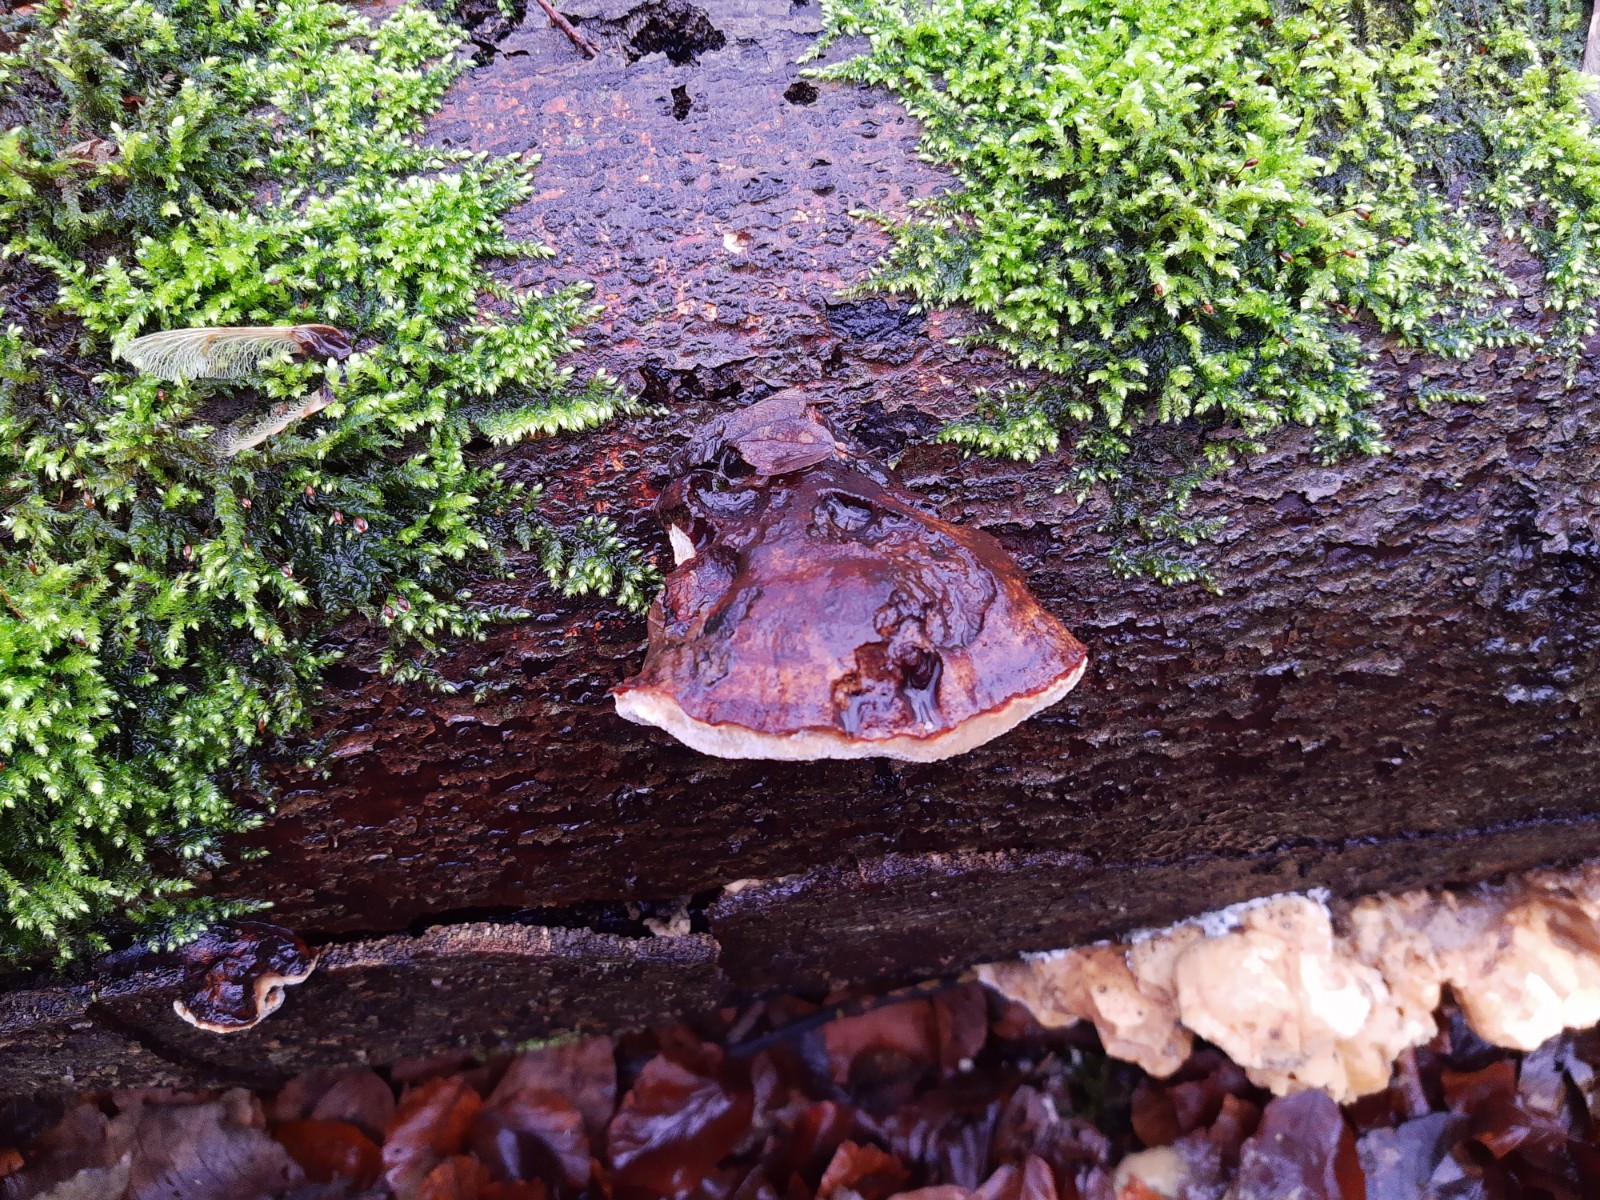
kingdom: Fungi
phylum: Basidiomycota
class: Agaricomycetes
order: Polyporales
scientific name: Polyporales
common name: poresvampordenen
